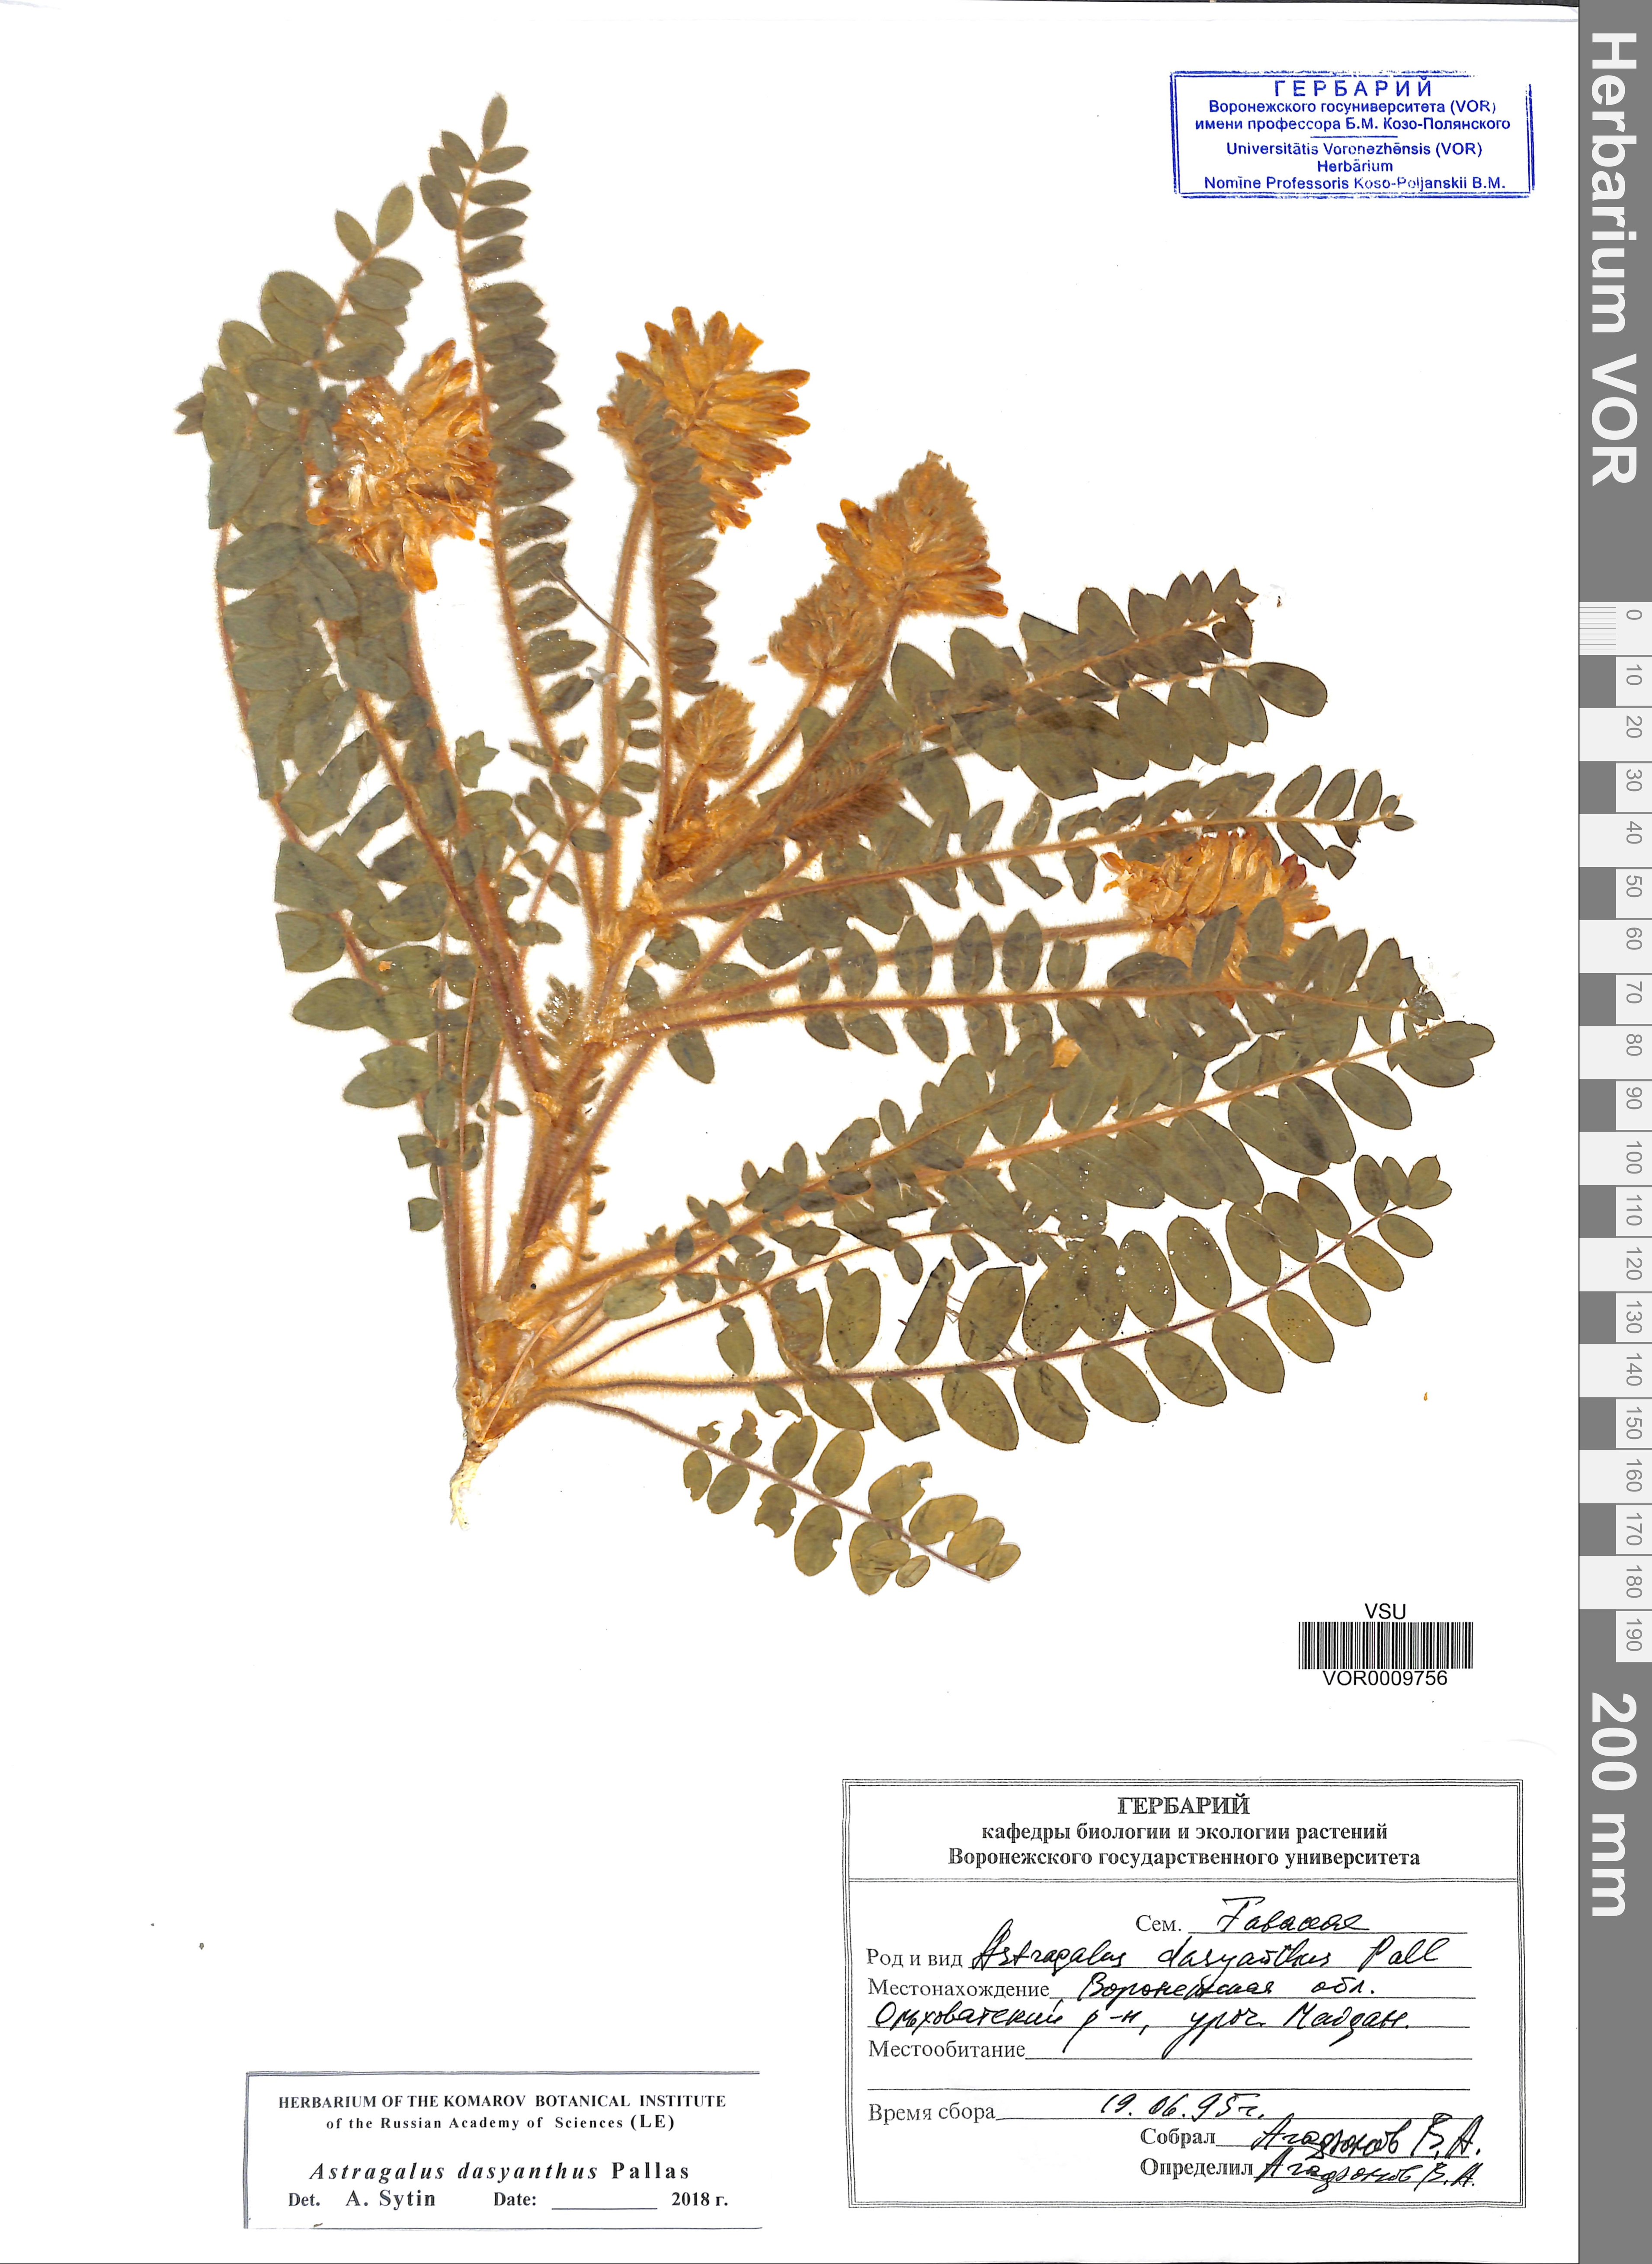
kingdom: Plantae
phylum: Tracheophyta
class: Magnoliopsida
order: Fabales
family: Fabaceae
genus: Astragalus
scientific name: Astragalus dasyanthus
